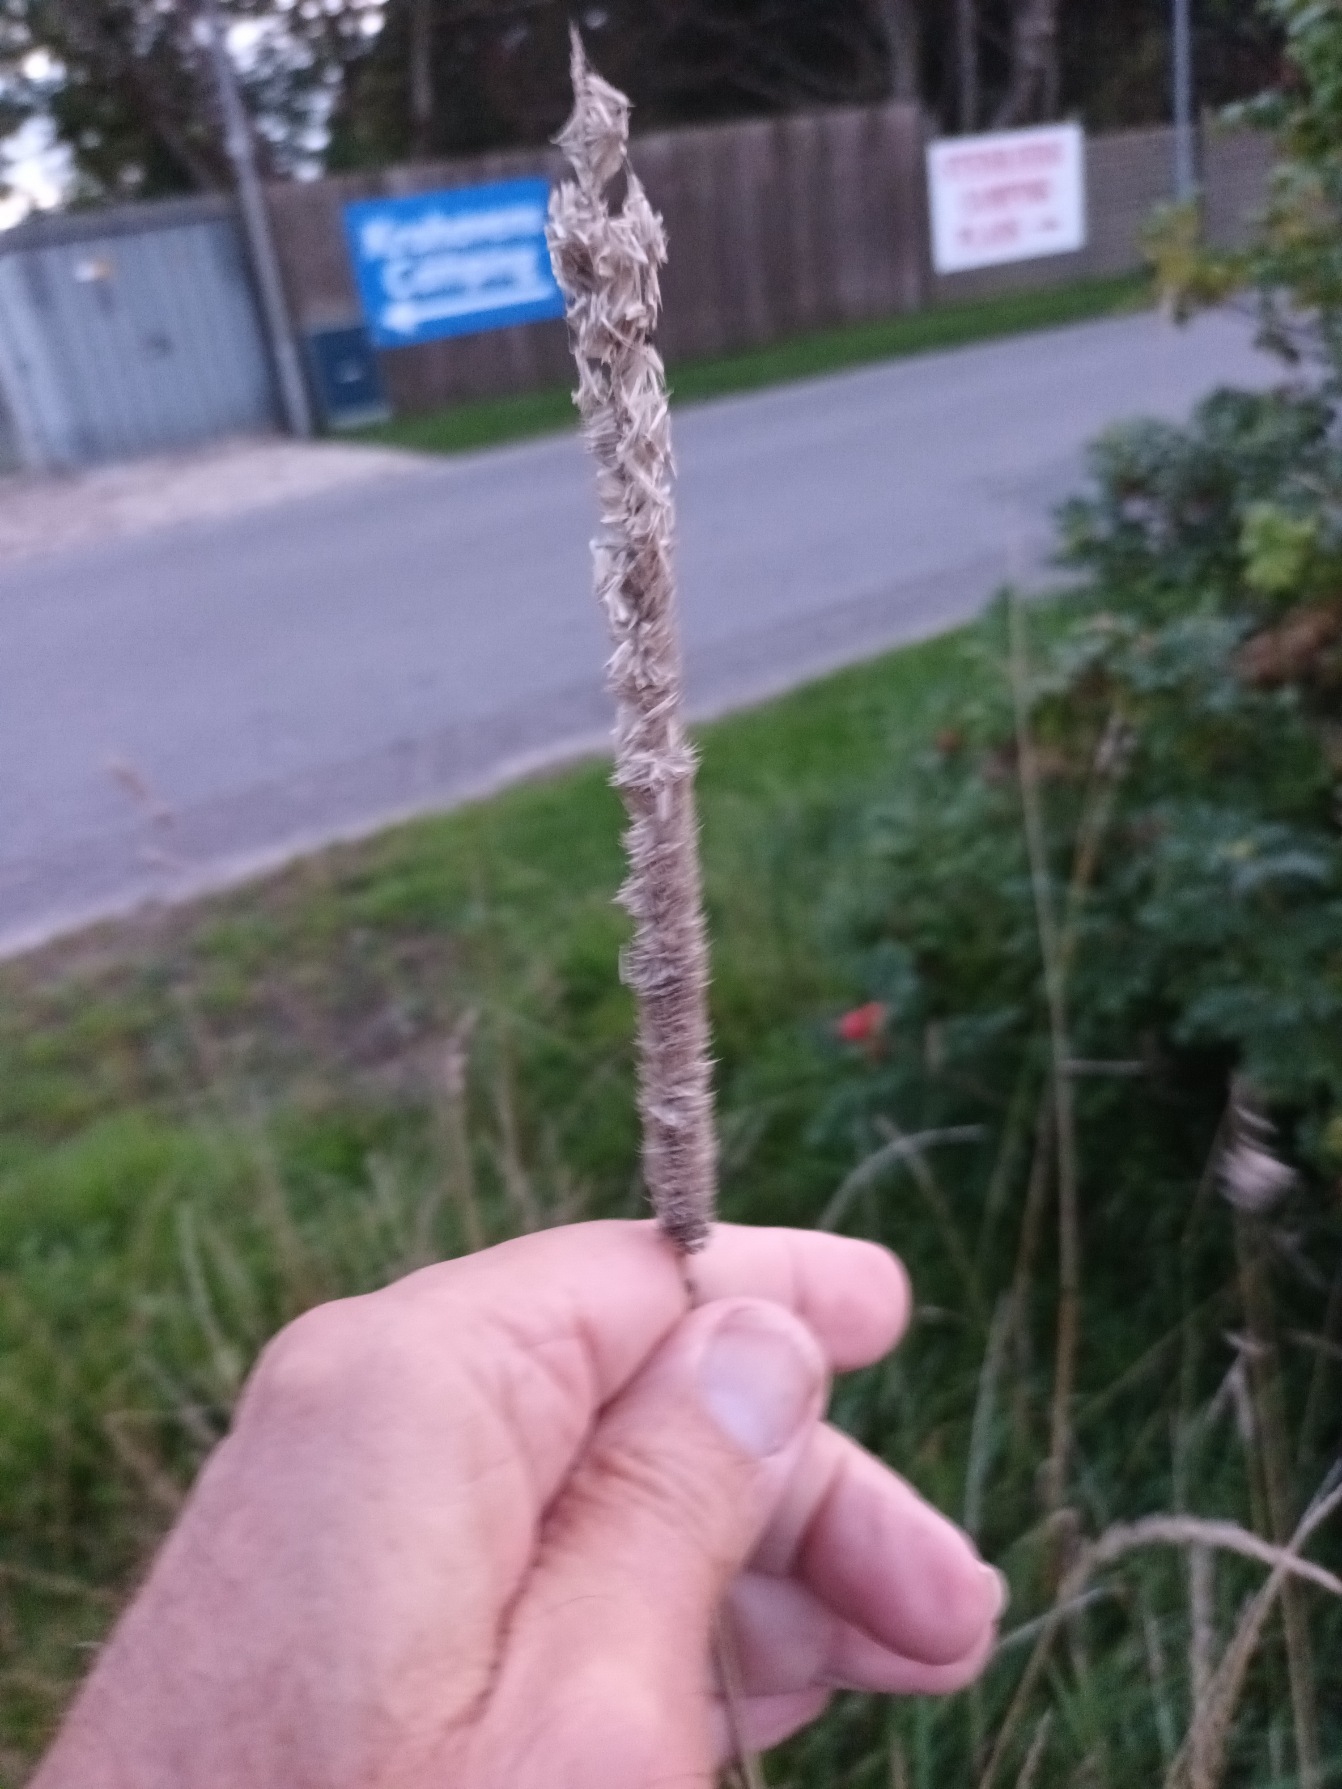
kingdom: Plantae
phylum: Tracheophyta
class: Liliopsida
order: Poales
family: Poaceae
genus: Phleum
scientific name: Phleum pratense
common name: Eng-rottehale
